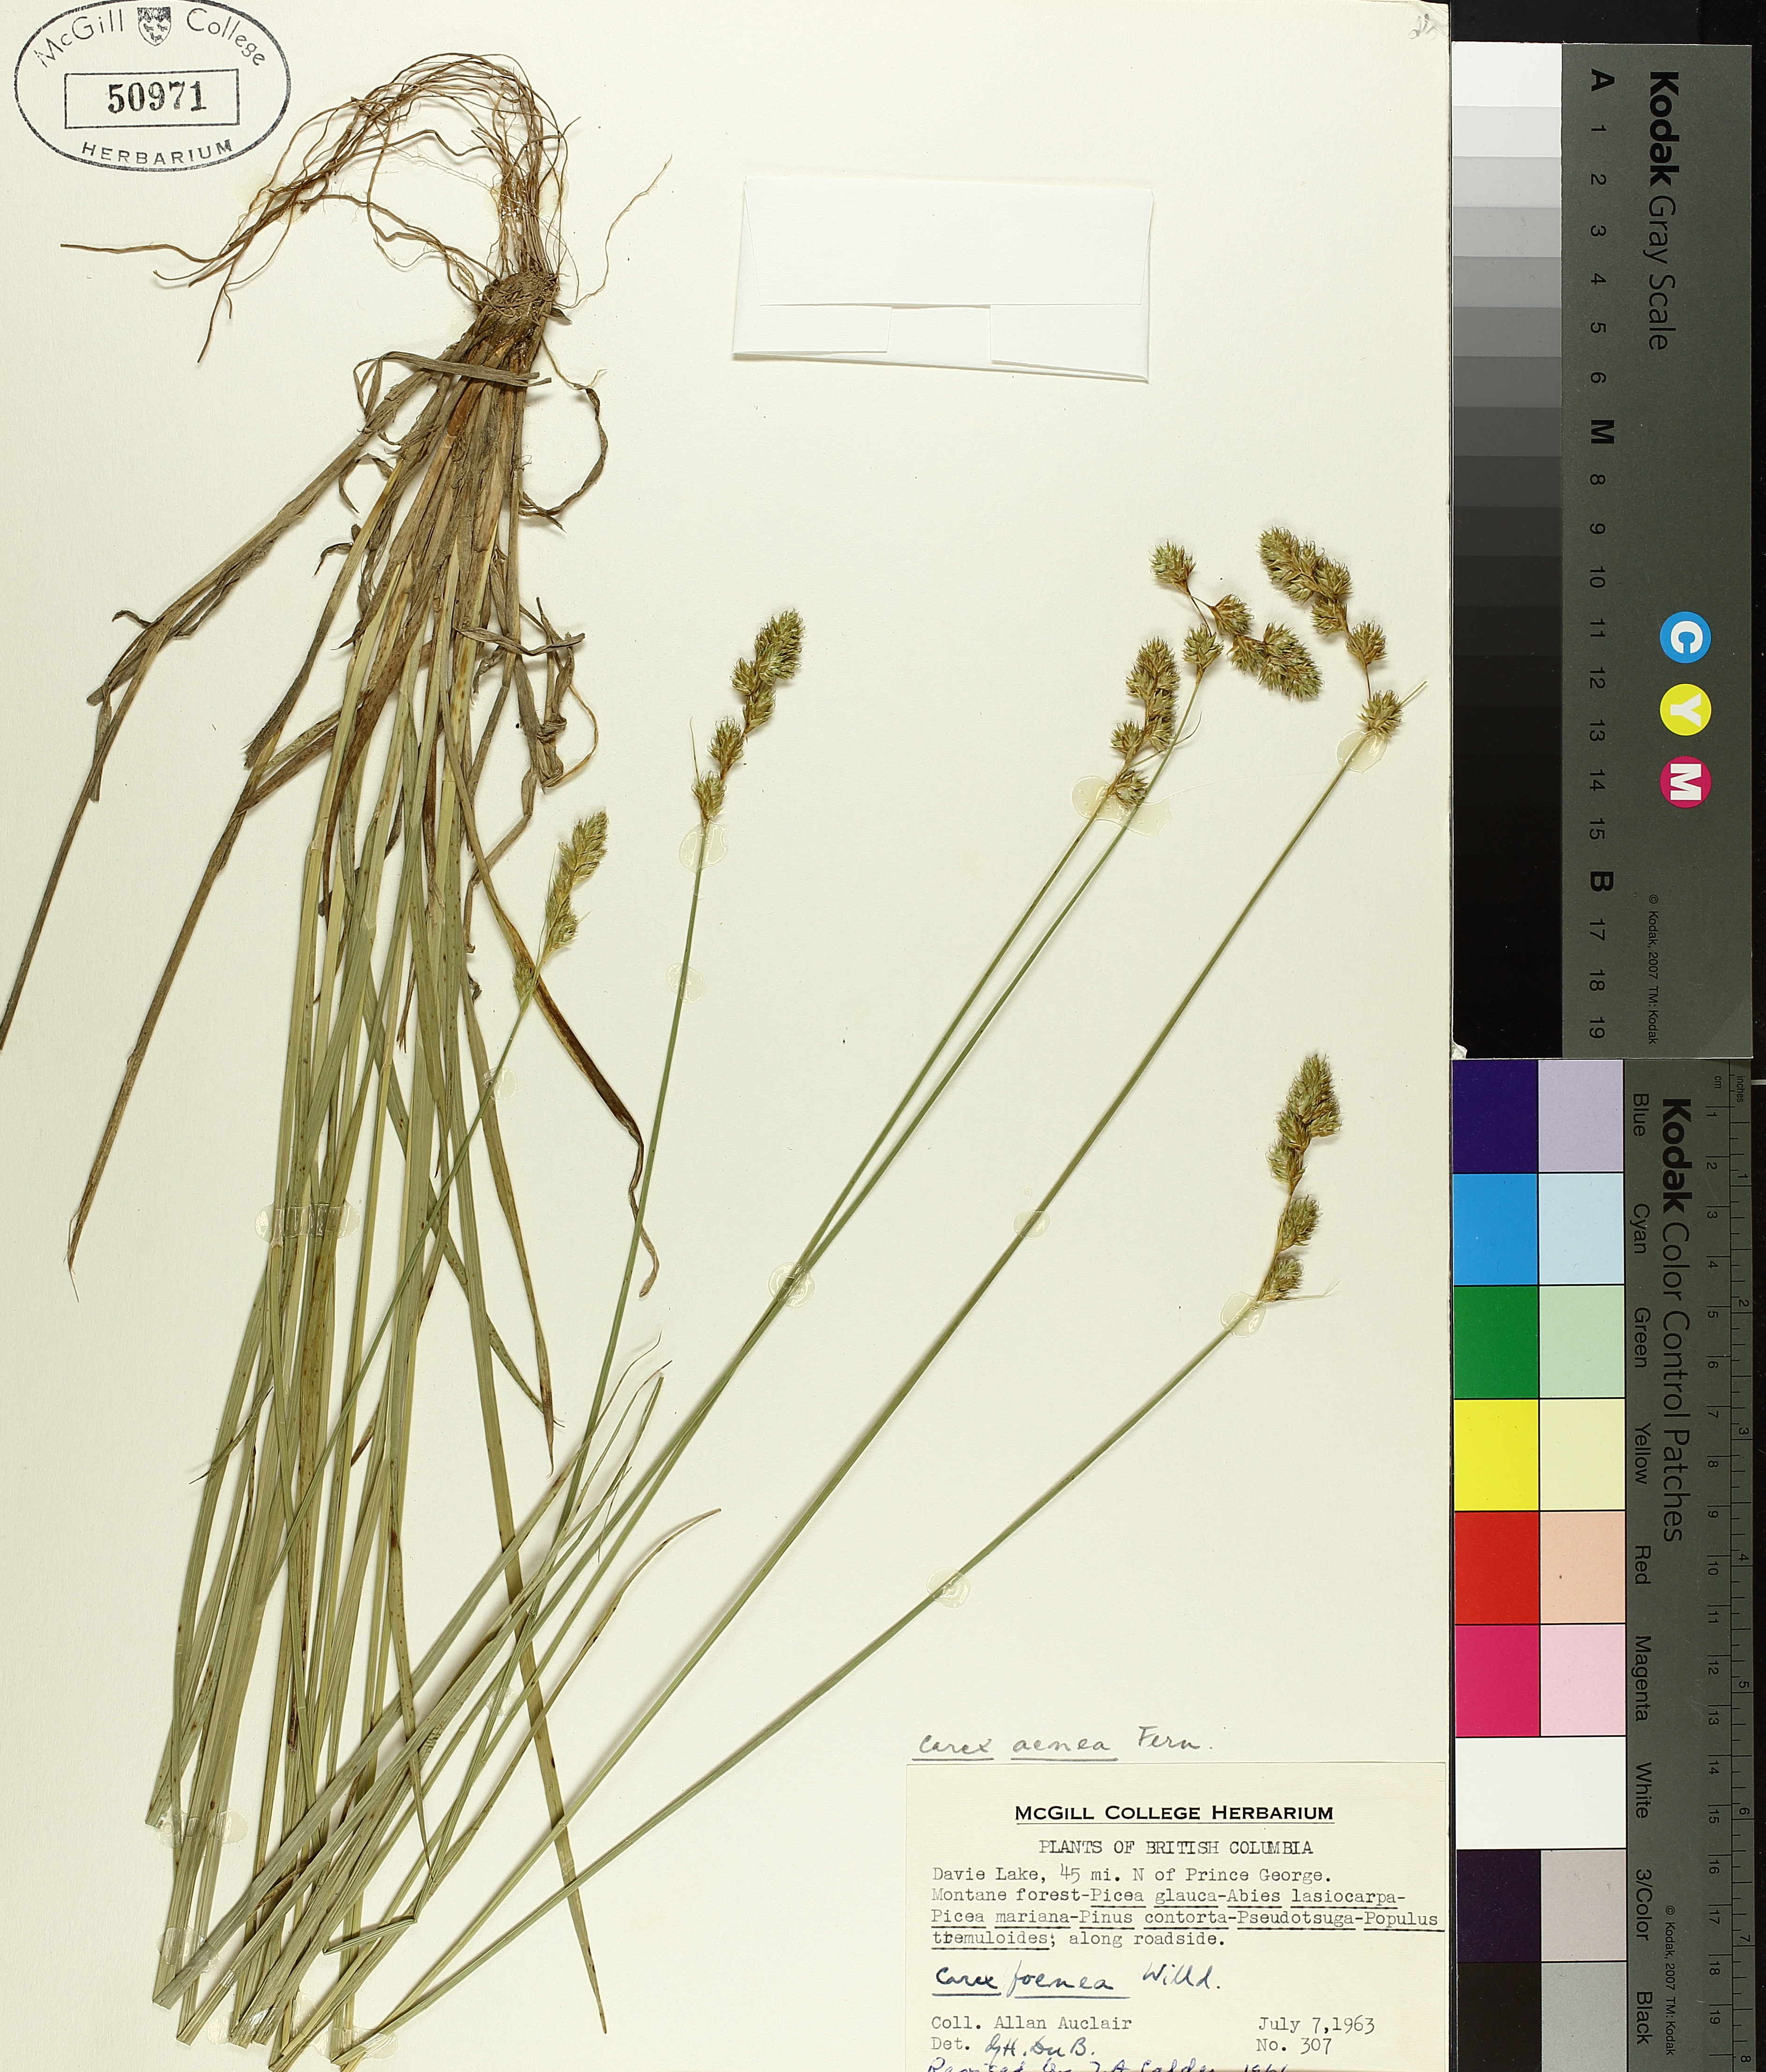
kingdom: Plantae
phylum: Tracheophyta
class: Liliopsida
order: Poales
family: Cyperaceae
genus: Carex
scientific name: Carex foenea
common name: Bronze sedge
